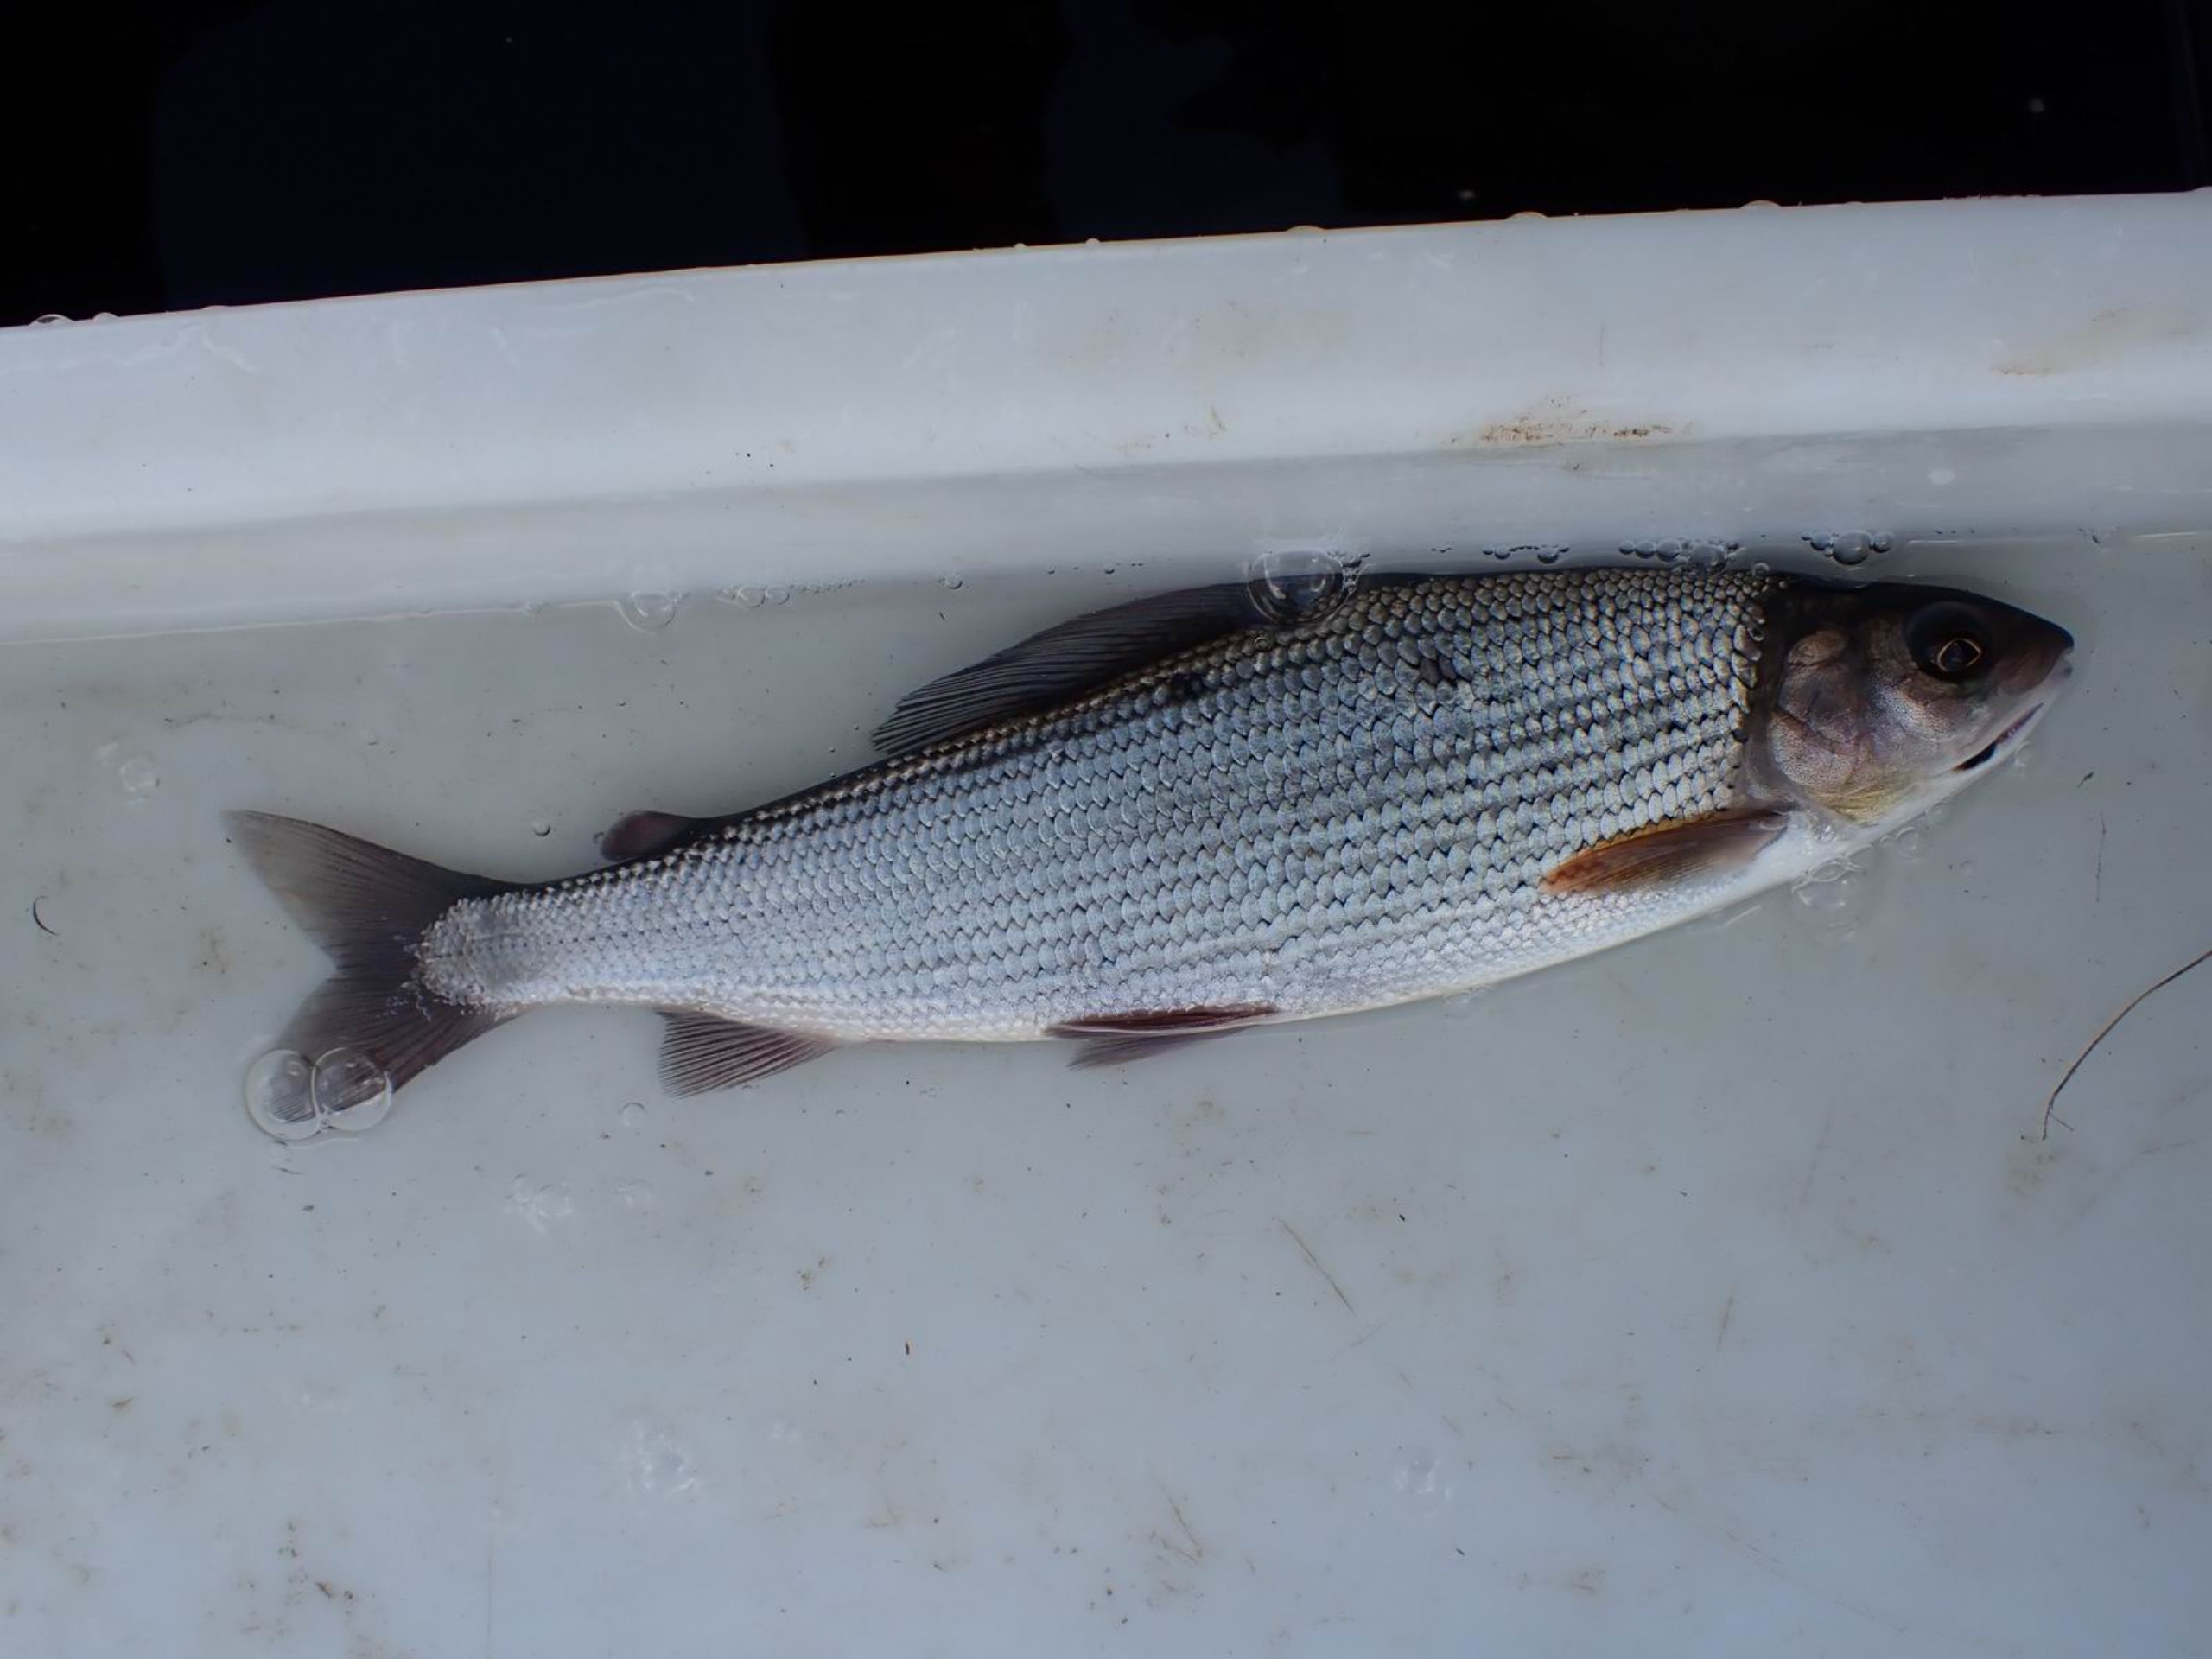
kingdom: Animalia
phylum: Chordata
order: Salmoniformes
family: Salmonidae
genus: Thymallus
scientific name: Thymallus thymallus
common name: Stalling
